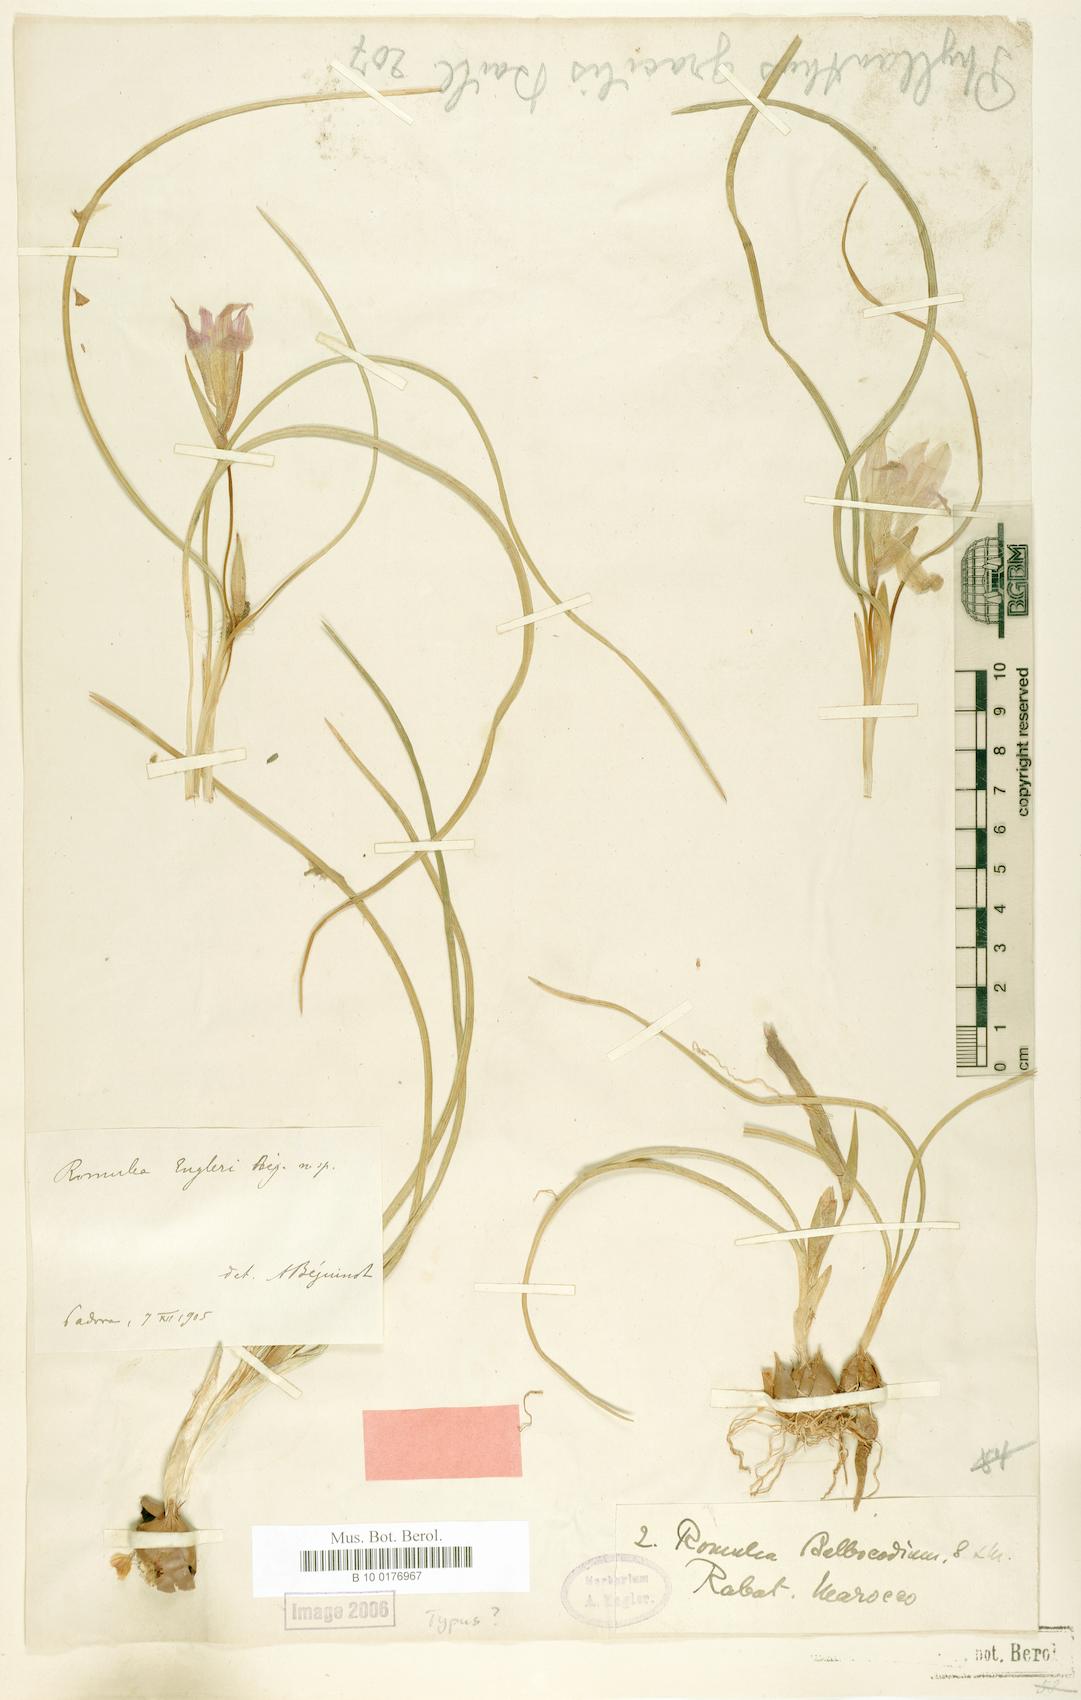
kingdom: Plantae
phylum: Tracheophyta
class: Liliopsida
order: Asparagales
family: Iridaceae
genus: Romulea
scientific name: Romulea engleri
